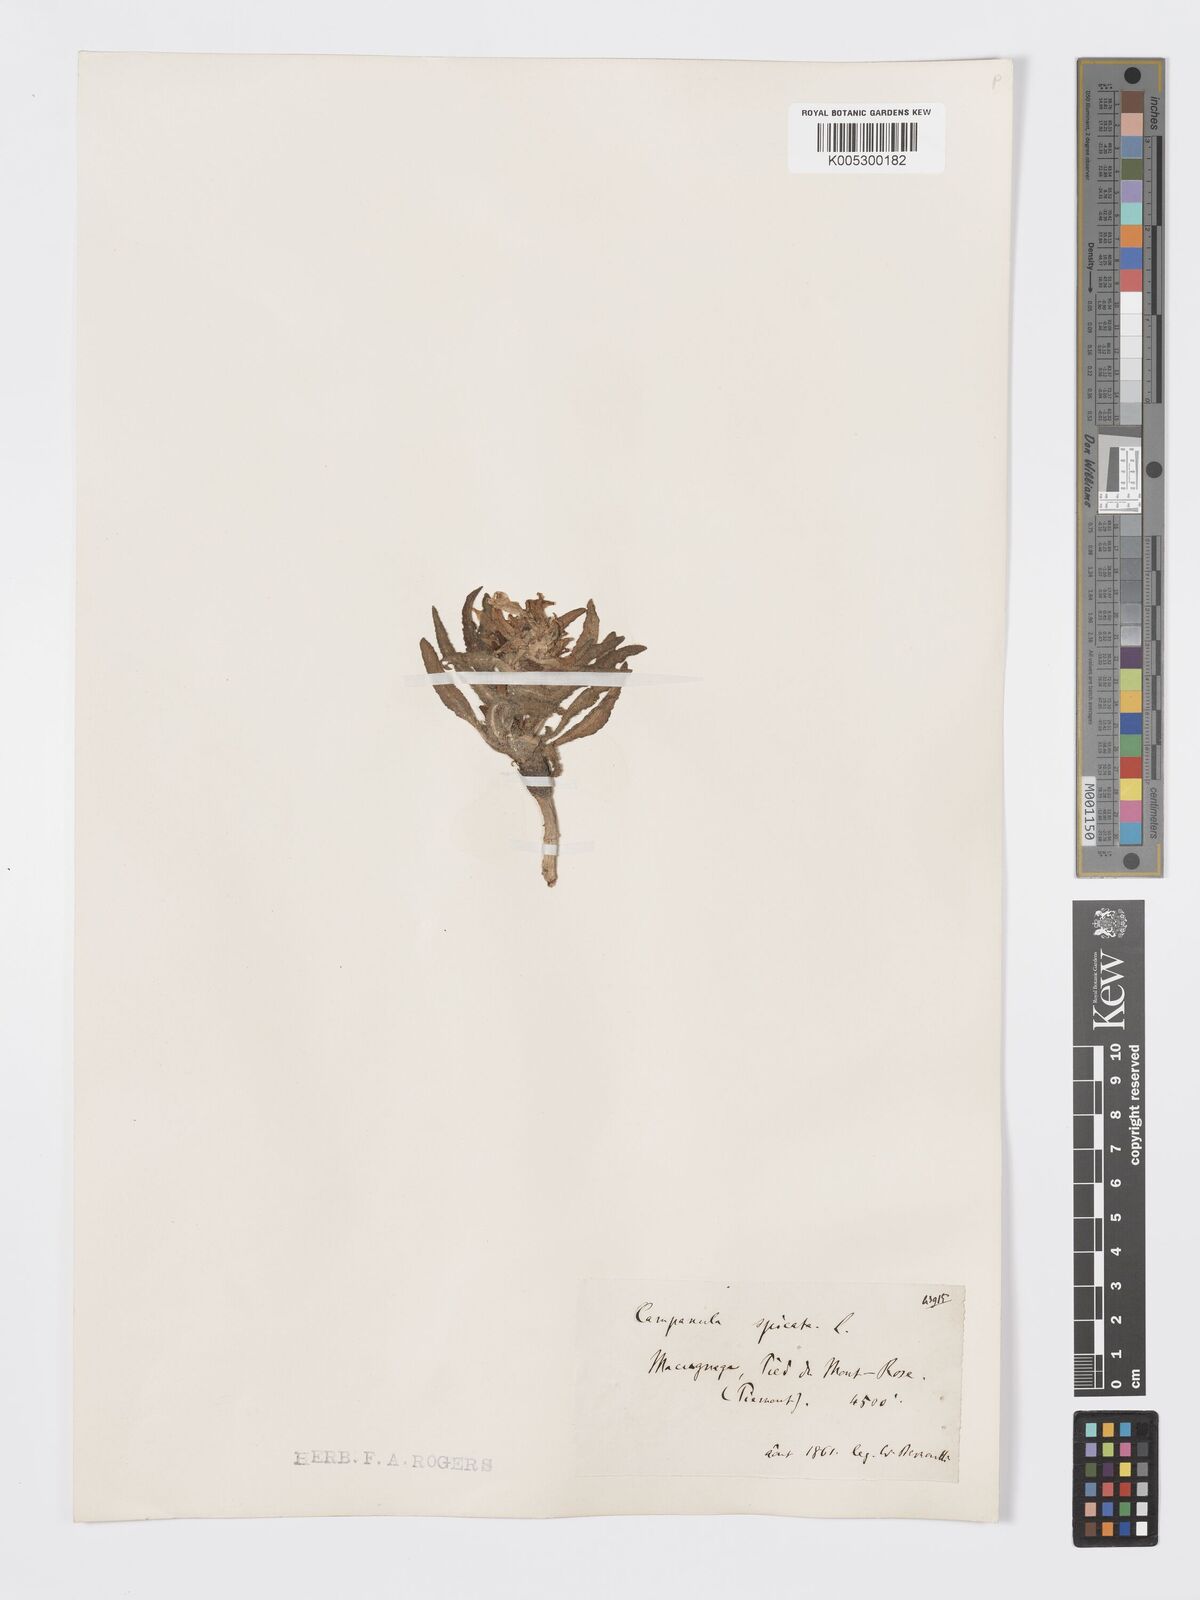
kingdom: Plantae
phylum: Tracheophyta
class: Magnoliopsida
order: Asterales
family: Campanulaceae
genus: Campanula
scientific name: Campanula spicata
